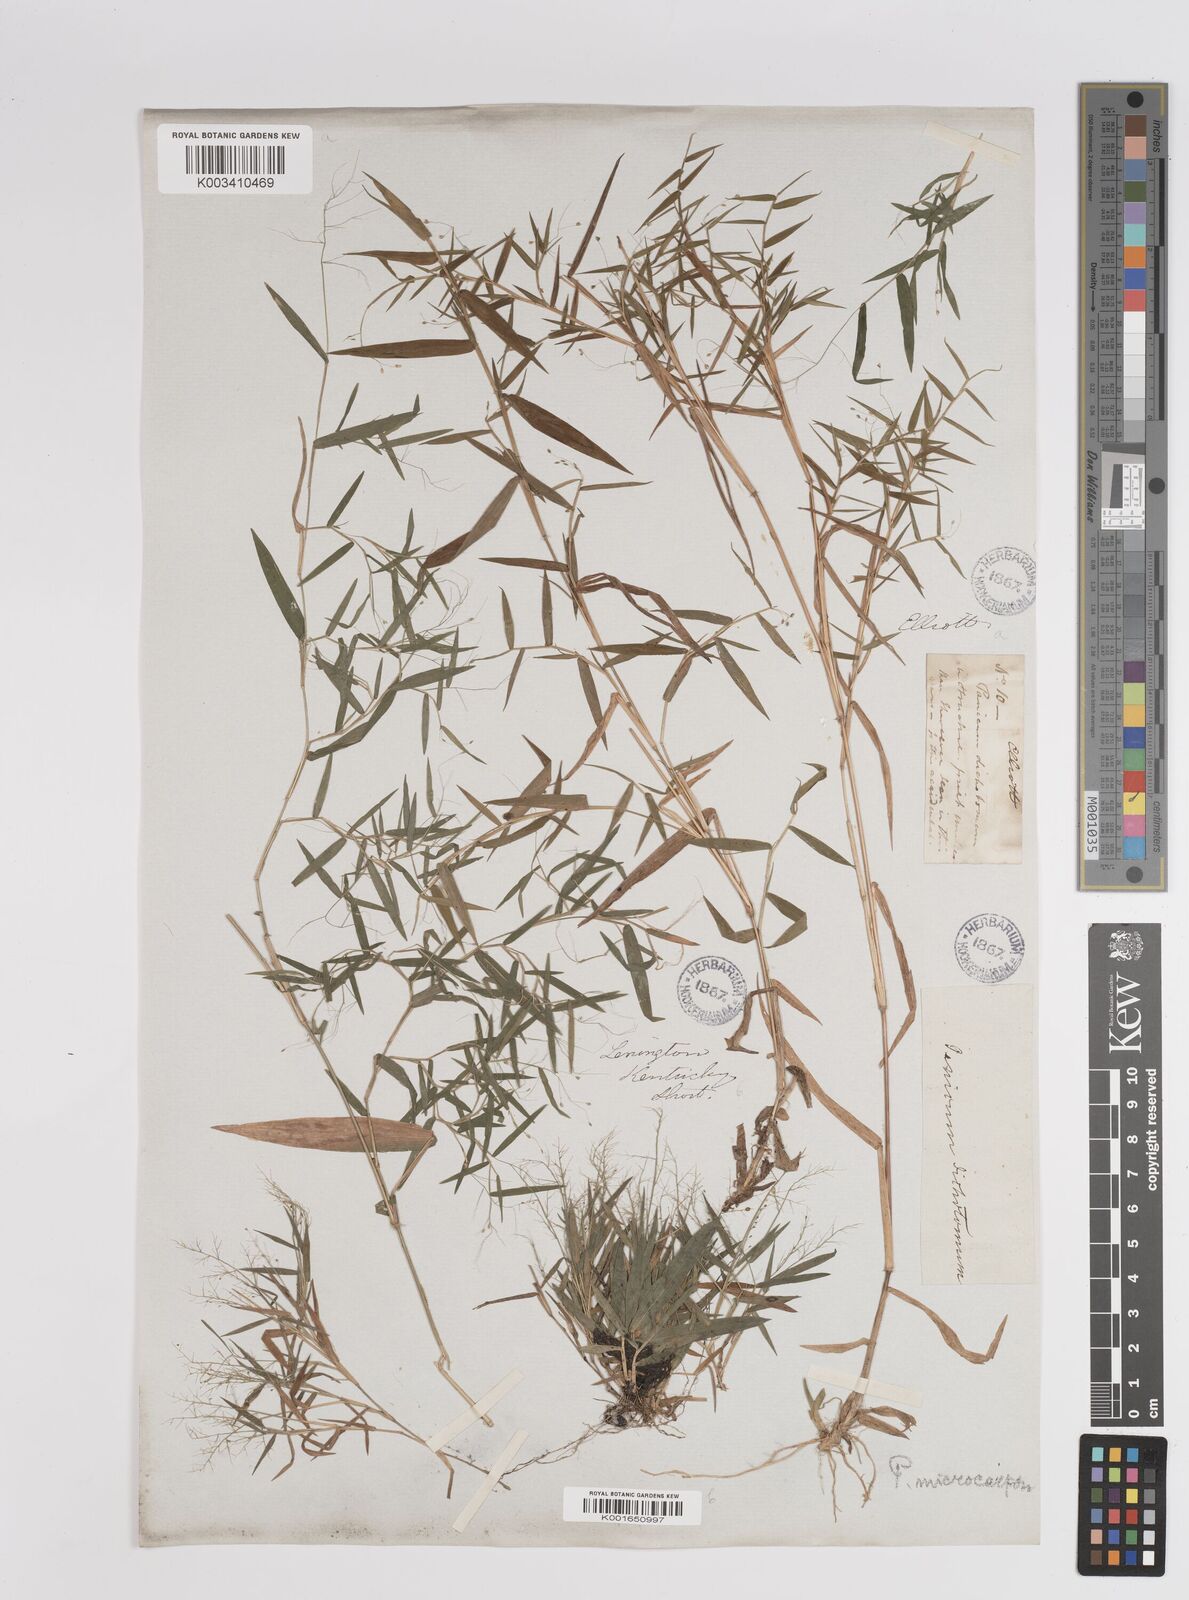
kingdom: Plantae
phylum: Tracheophyta
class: Liliopsida
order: Poales
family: Poaceae
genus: Dichanthelium
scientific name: Dichanthelium polyanthes
